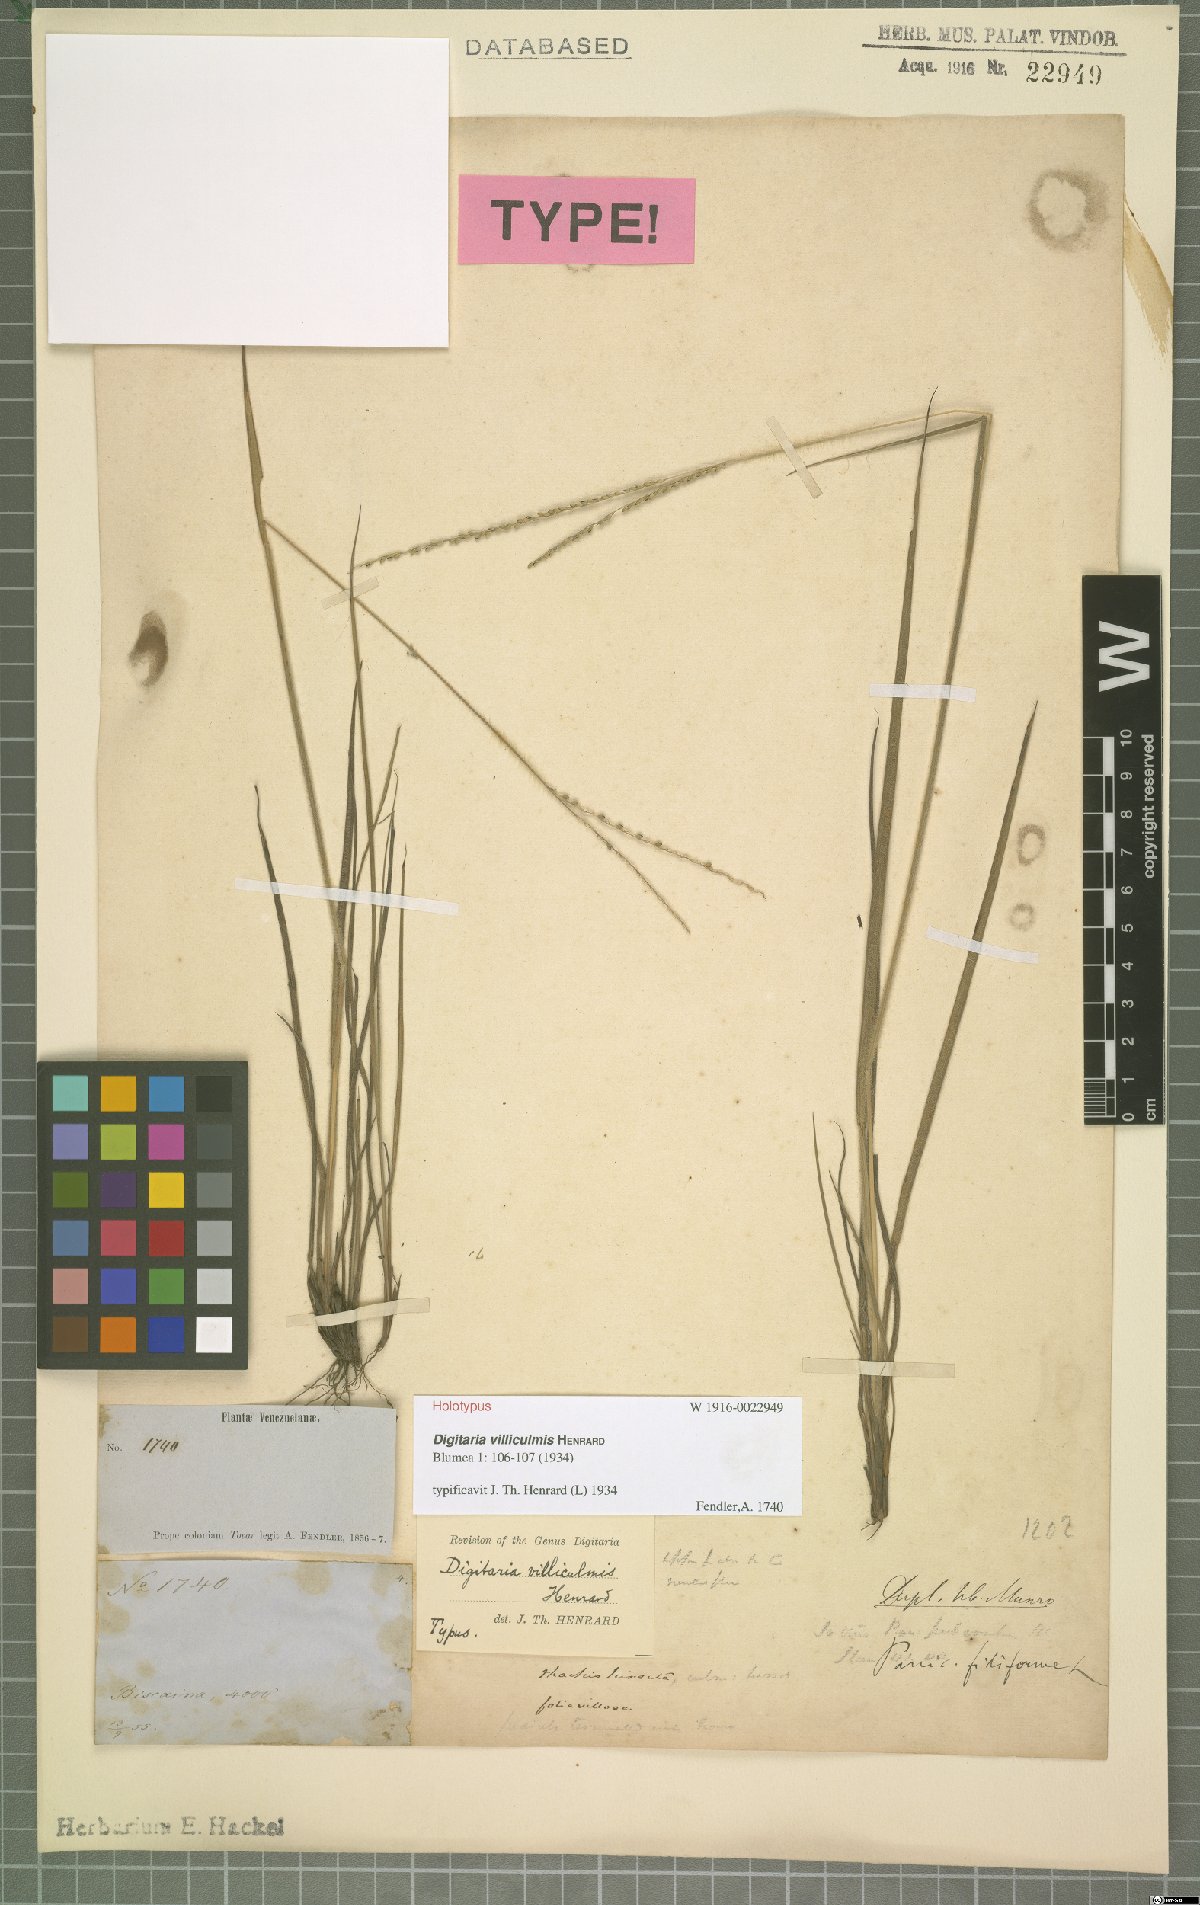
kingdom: Plantae
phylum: Tracheophyta
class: Liliopsida
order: Poales
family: Poaceae
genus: Digitaria
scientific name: Digitaria villiculmis
